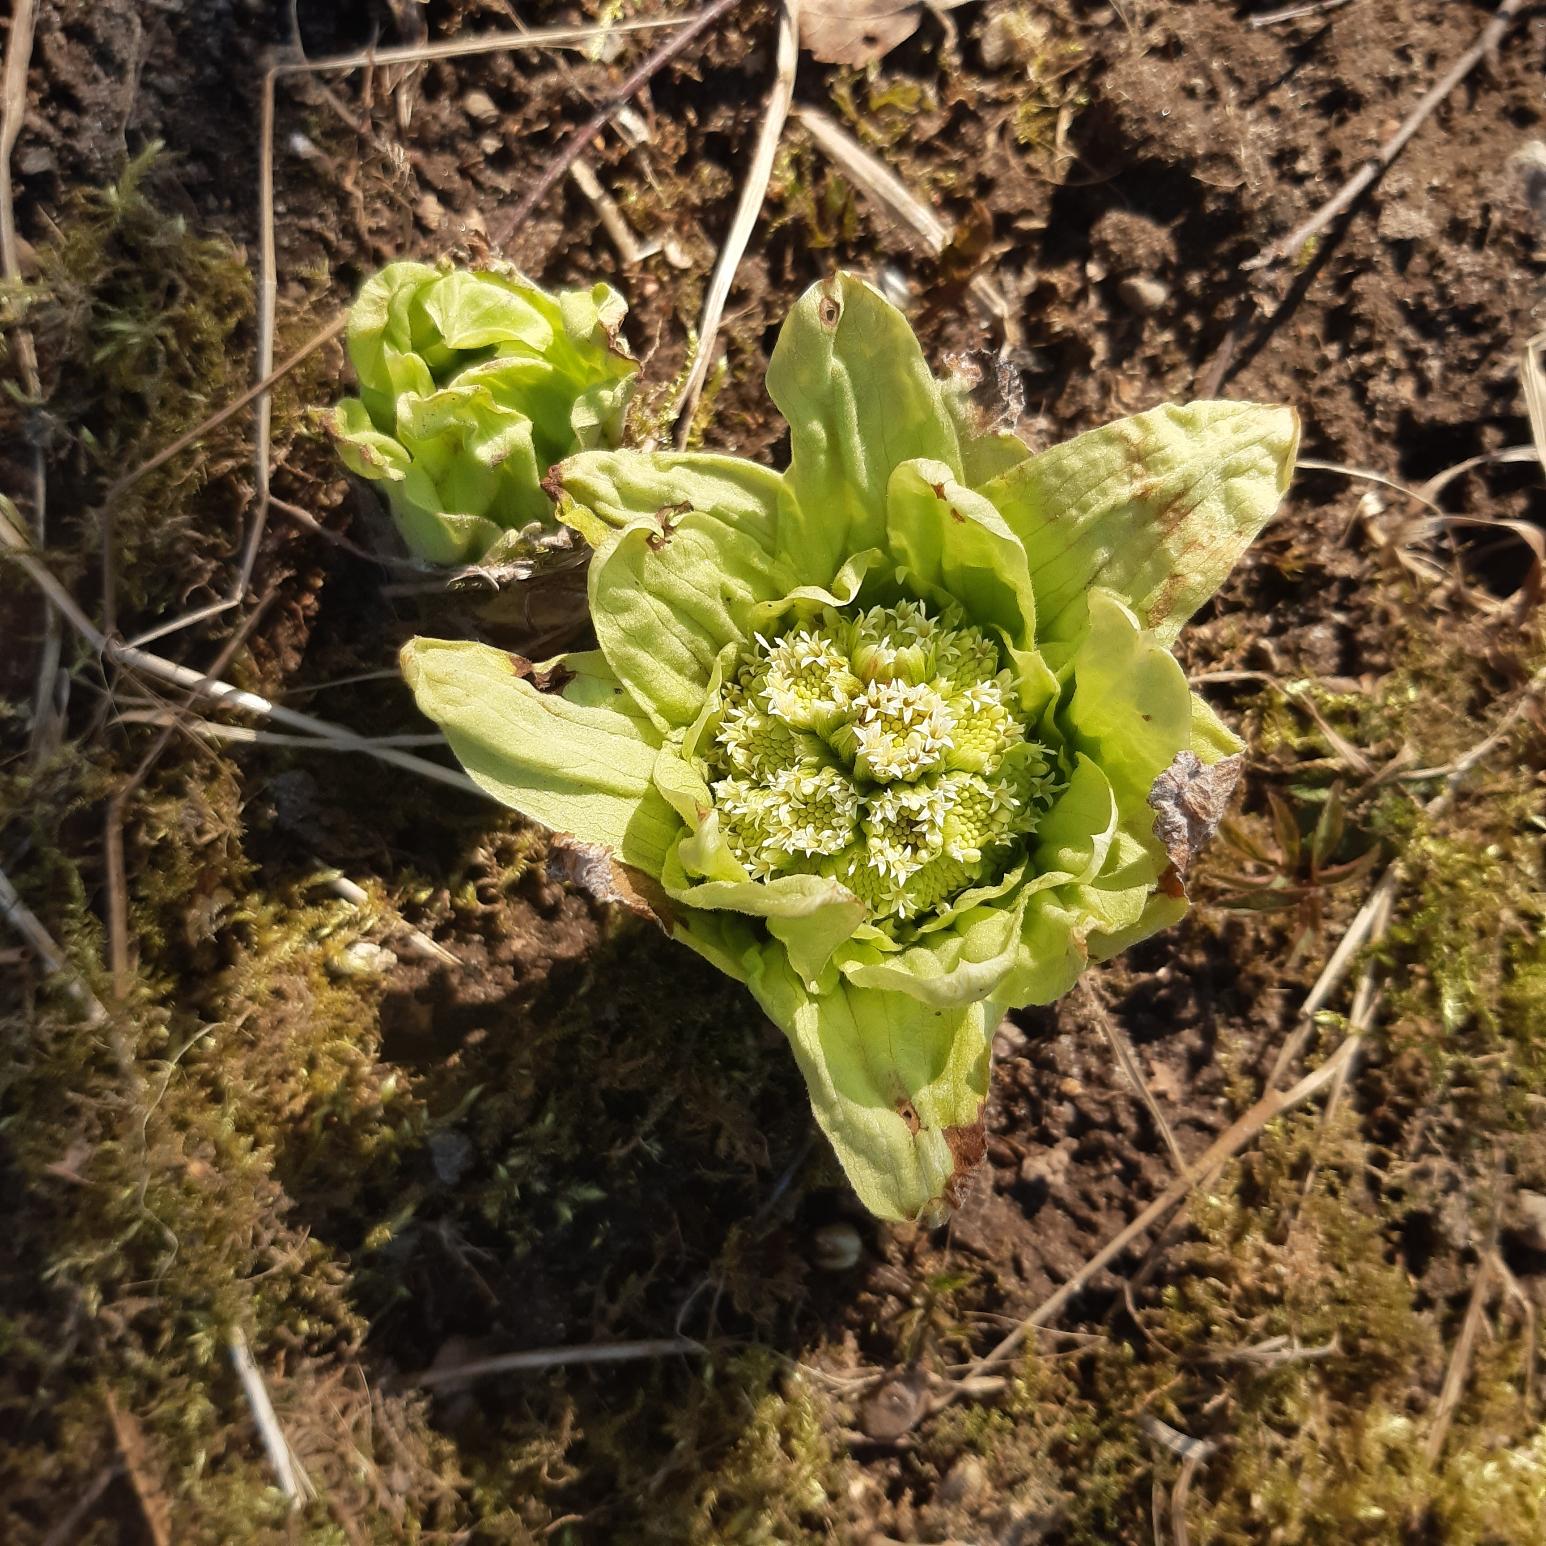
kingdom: Plantae
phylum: Tracheophyta
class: Magnoliopsida
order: Asterales
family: Asteraceae
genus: Petasites
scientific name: Petasites japonicus
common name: Japansk hestehov
